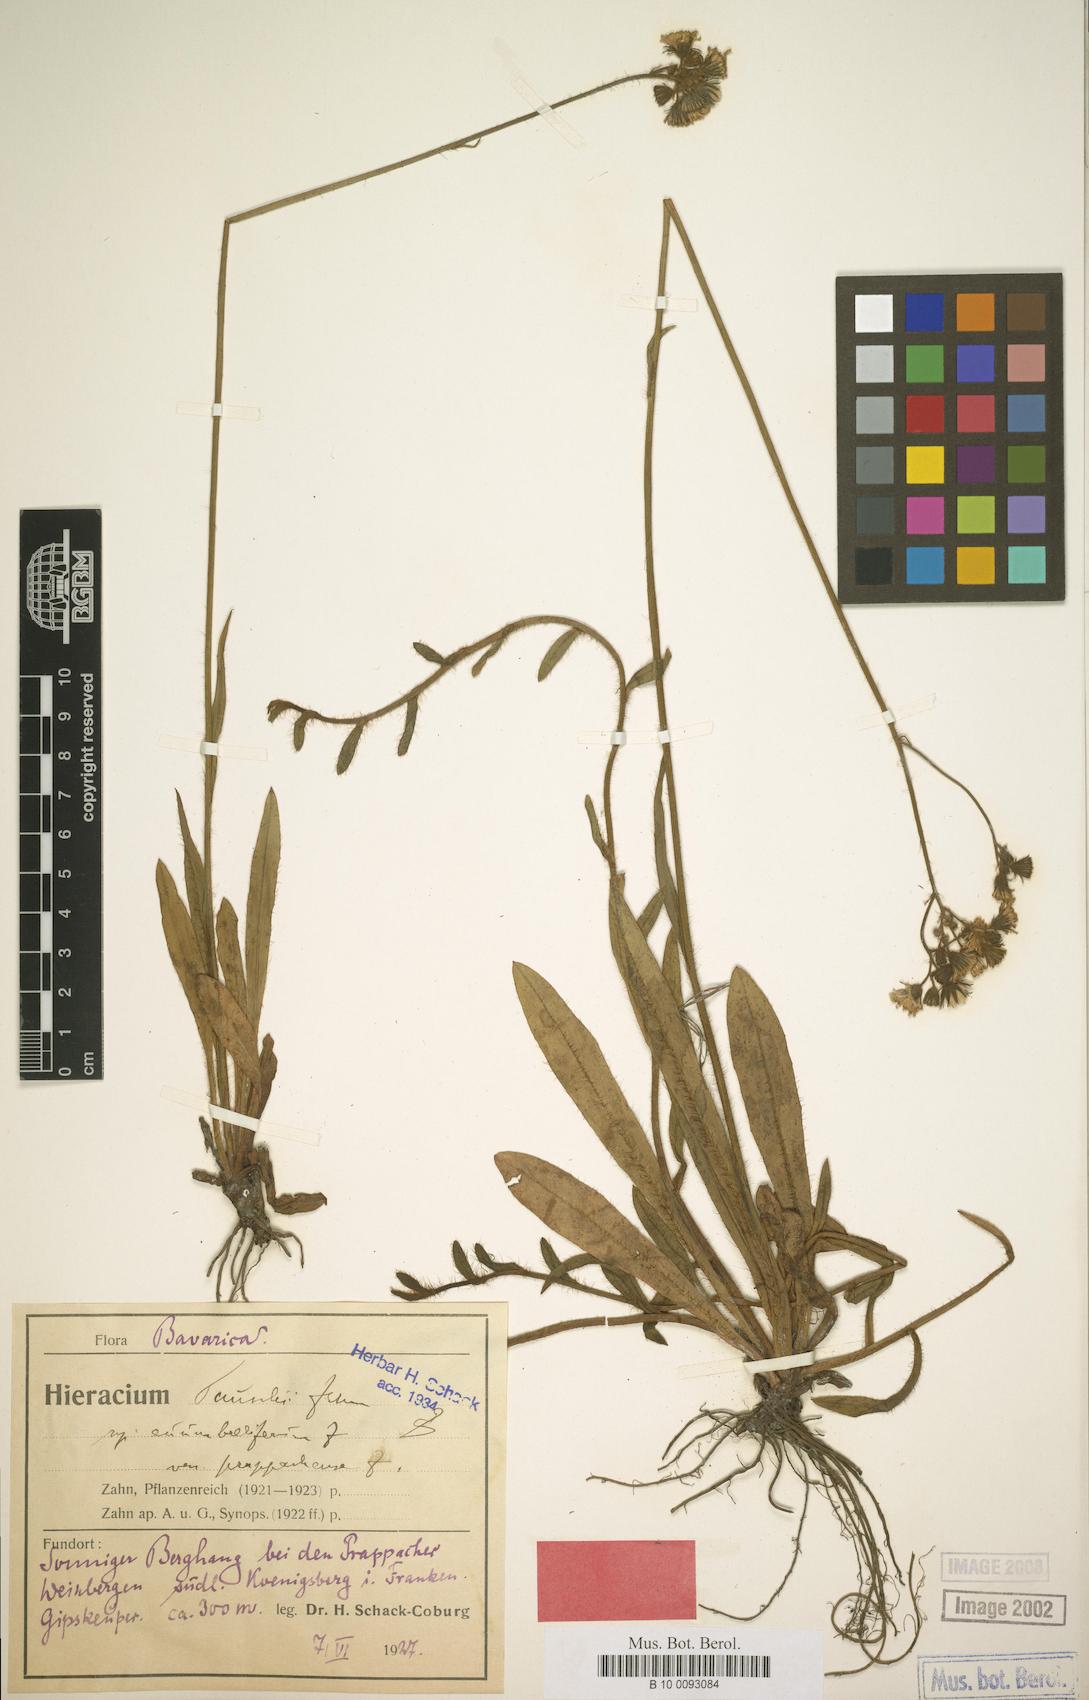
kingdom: Plantae
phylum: Tracheophyta
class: Magnoliopsida
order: Asterales
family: Asteraceae
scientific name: Asteraceae
